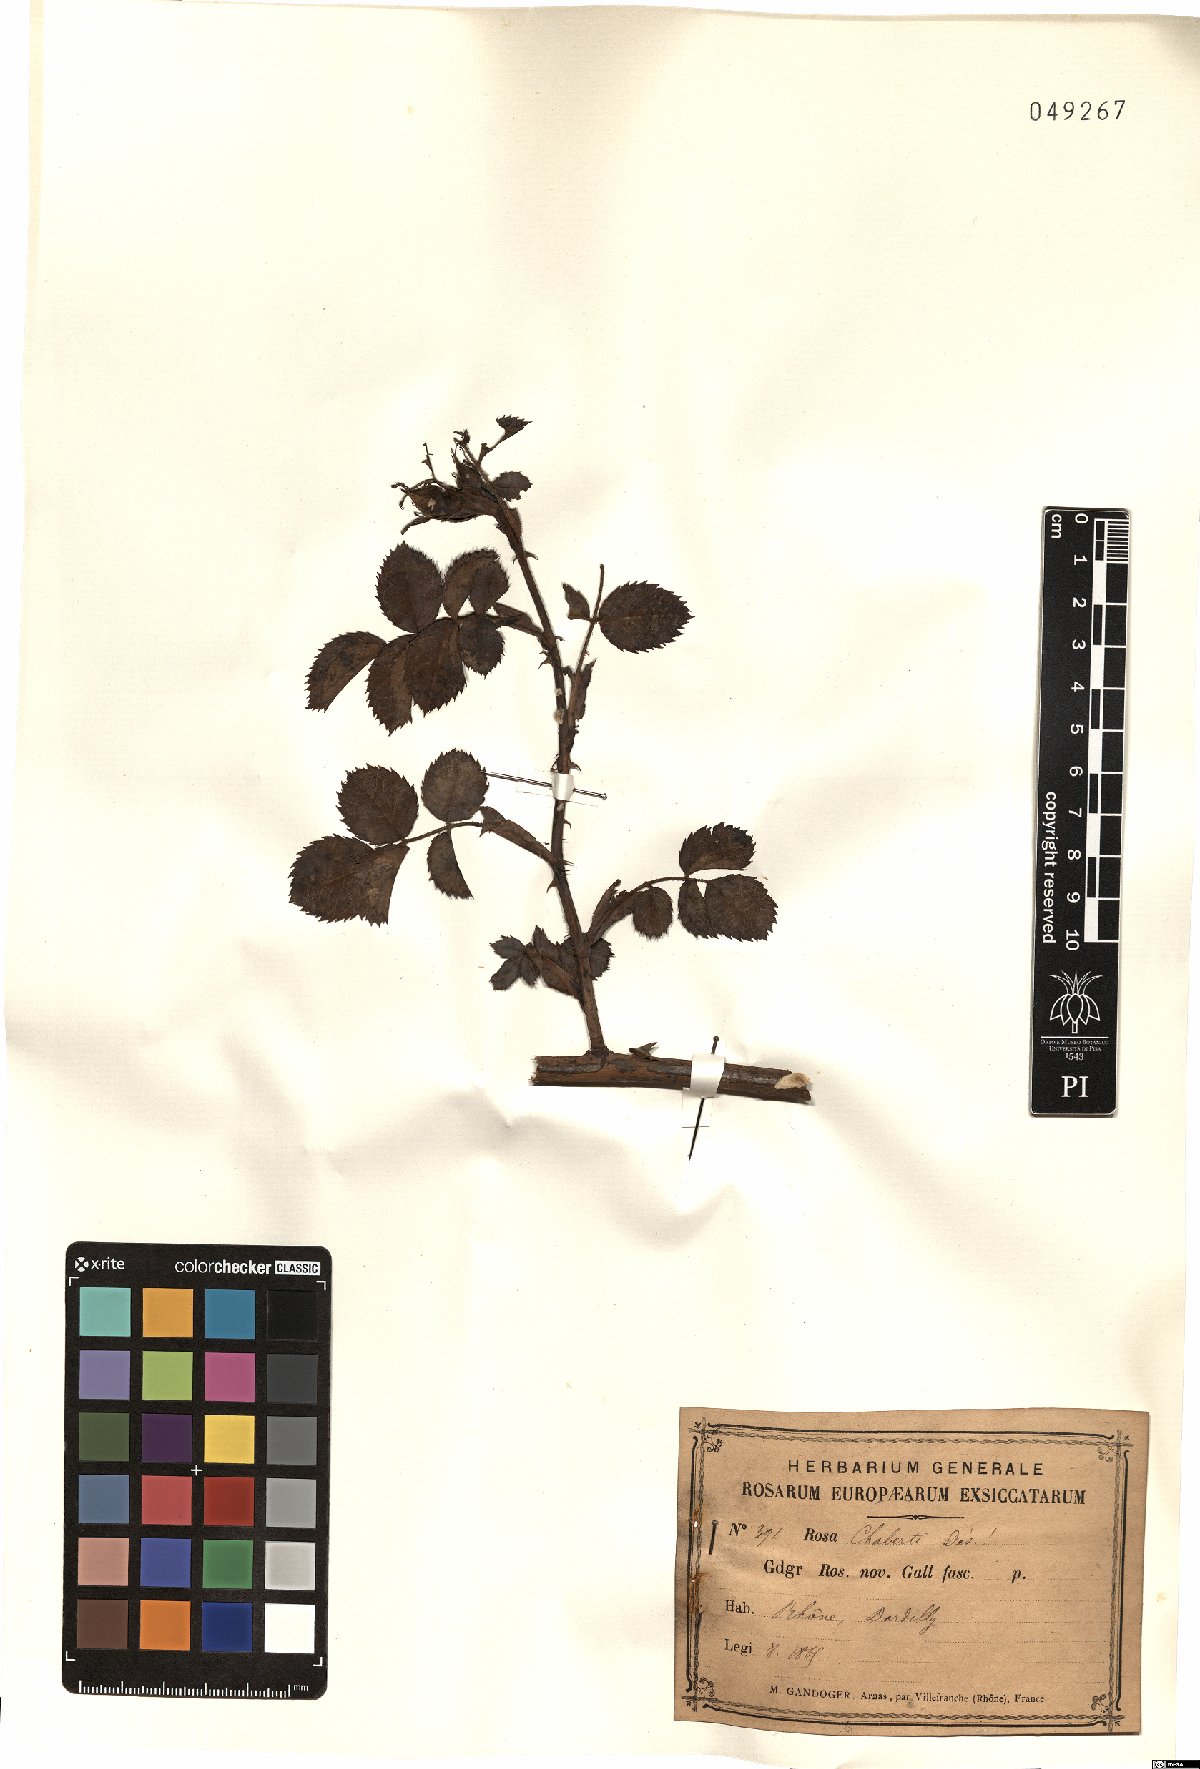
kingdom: Plantae
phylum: Tracheophyta
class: Magnoliopsida
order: Rosales
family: Rosaceae
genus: Rosa
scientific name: Rosa kosinsciana
